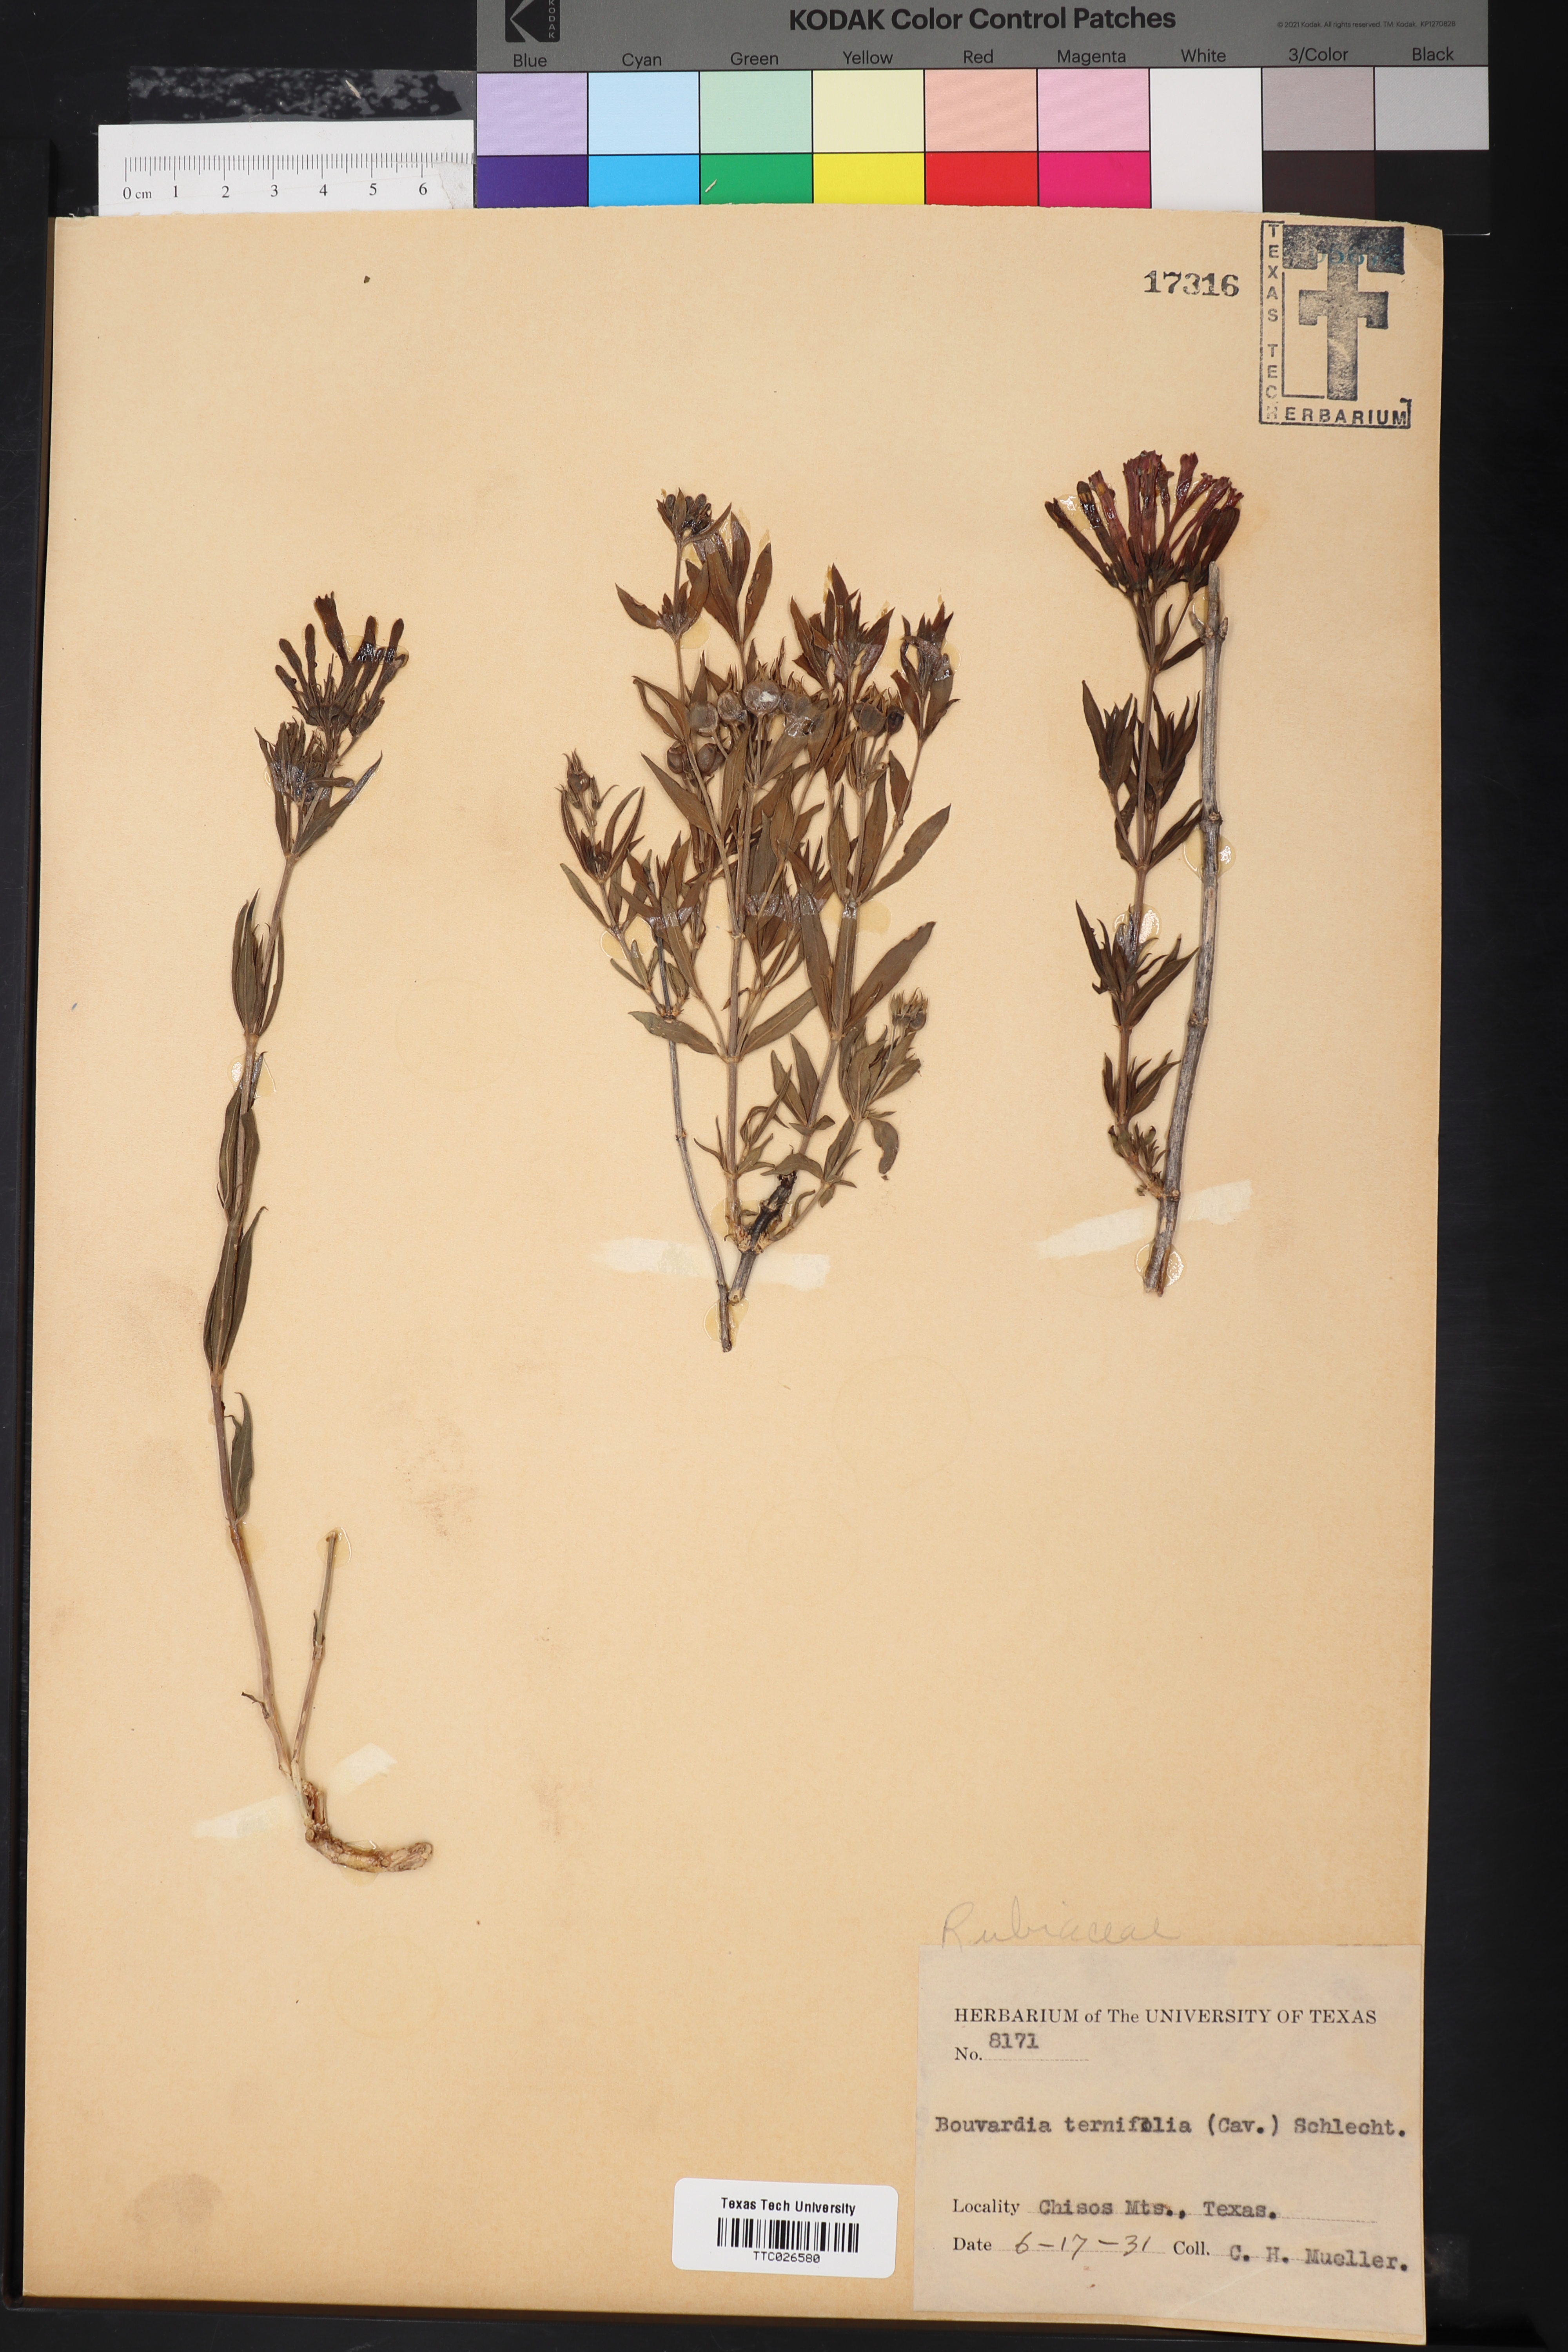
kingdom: Plantae
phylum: Tracheophyta
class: Magnoliopsida
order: Gentianales
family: Rubiaceae
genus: Bouvardia
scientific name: Bouvardia ternifolia
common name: Scarlet bouvardia
